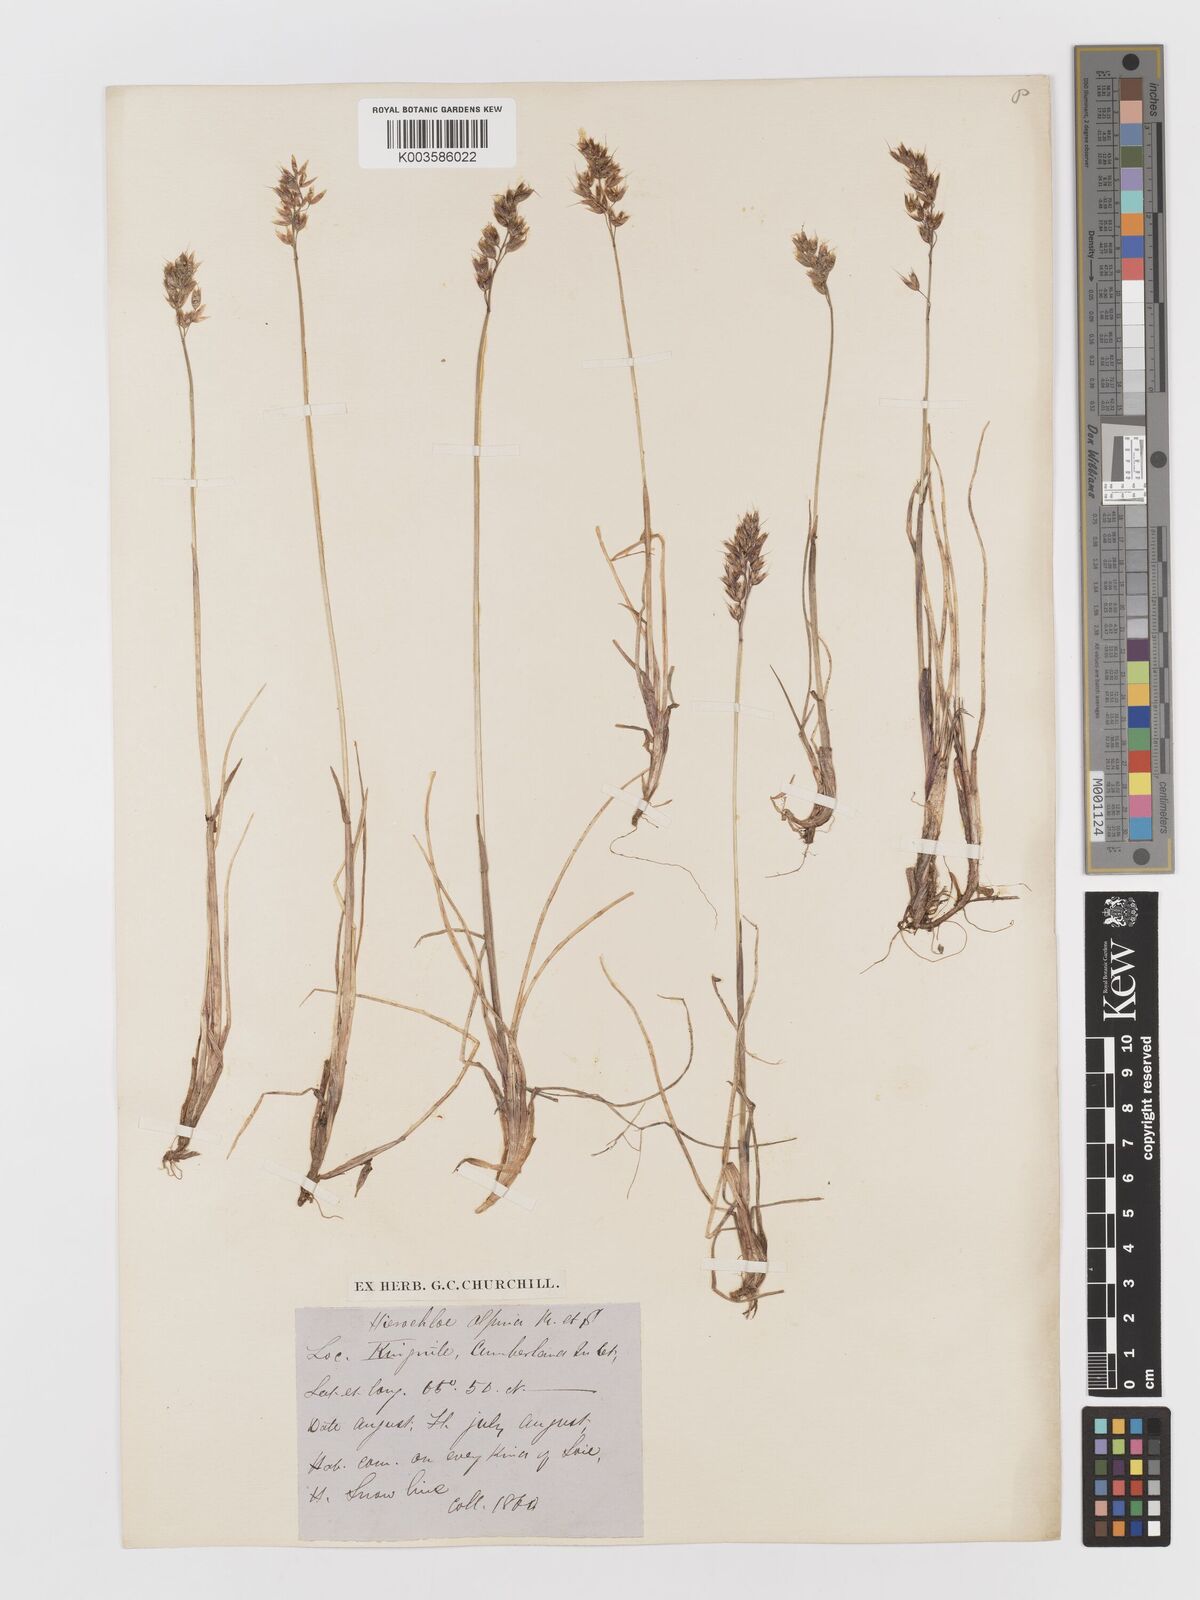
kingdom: Plantae
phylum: Tracheophyta
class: Liliopsida
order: Poales
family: Poaceae
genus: Anthoxanthum
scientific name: Anthoxanthum monticola
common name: Alpine sweetgrass
